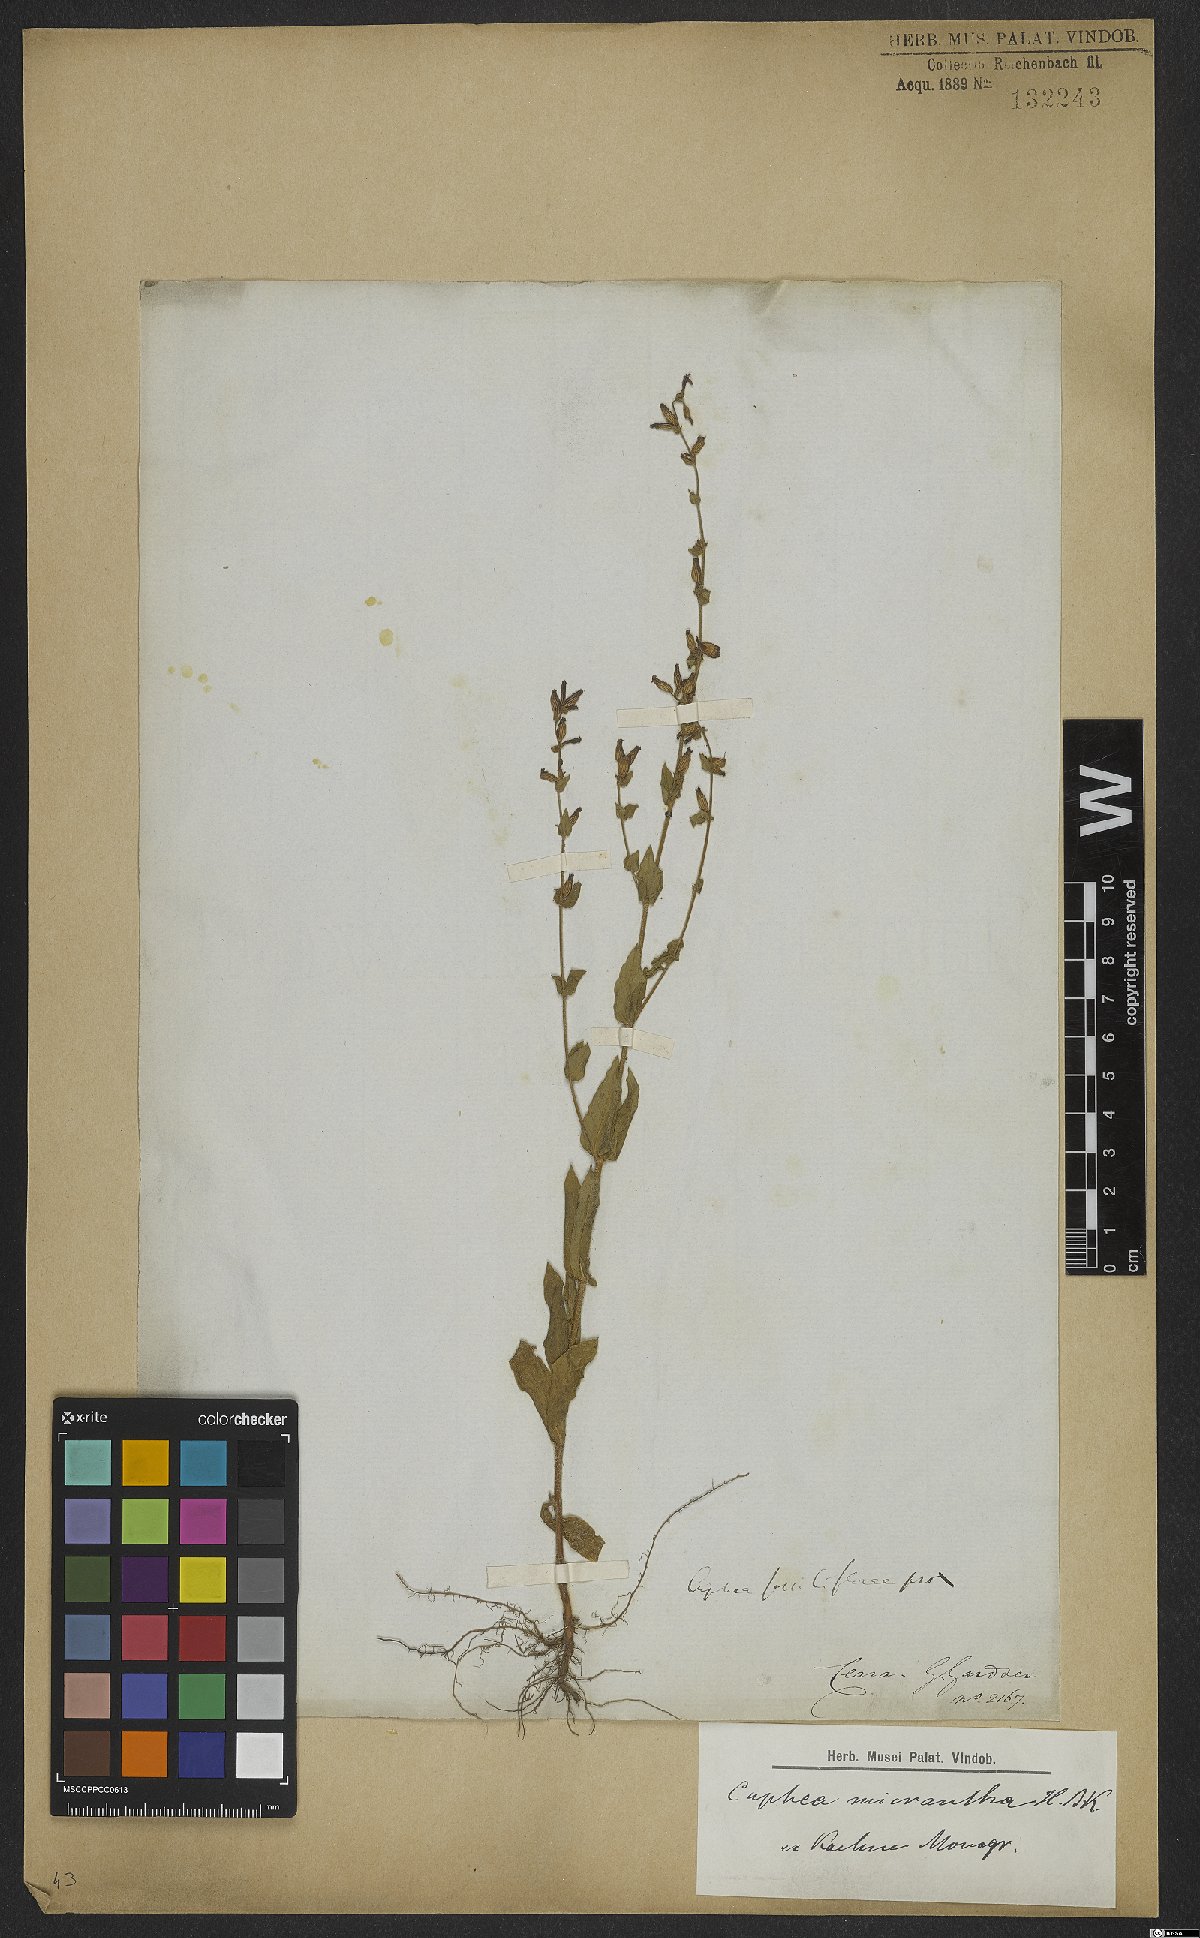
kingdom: Plantae
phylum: Tracheophyta
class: Magnoliopsida
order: Myrtales
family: Lythraceae
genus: Cuphea
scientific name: Cuphea micrantha
